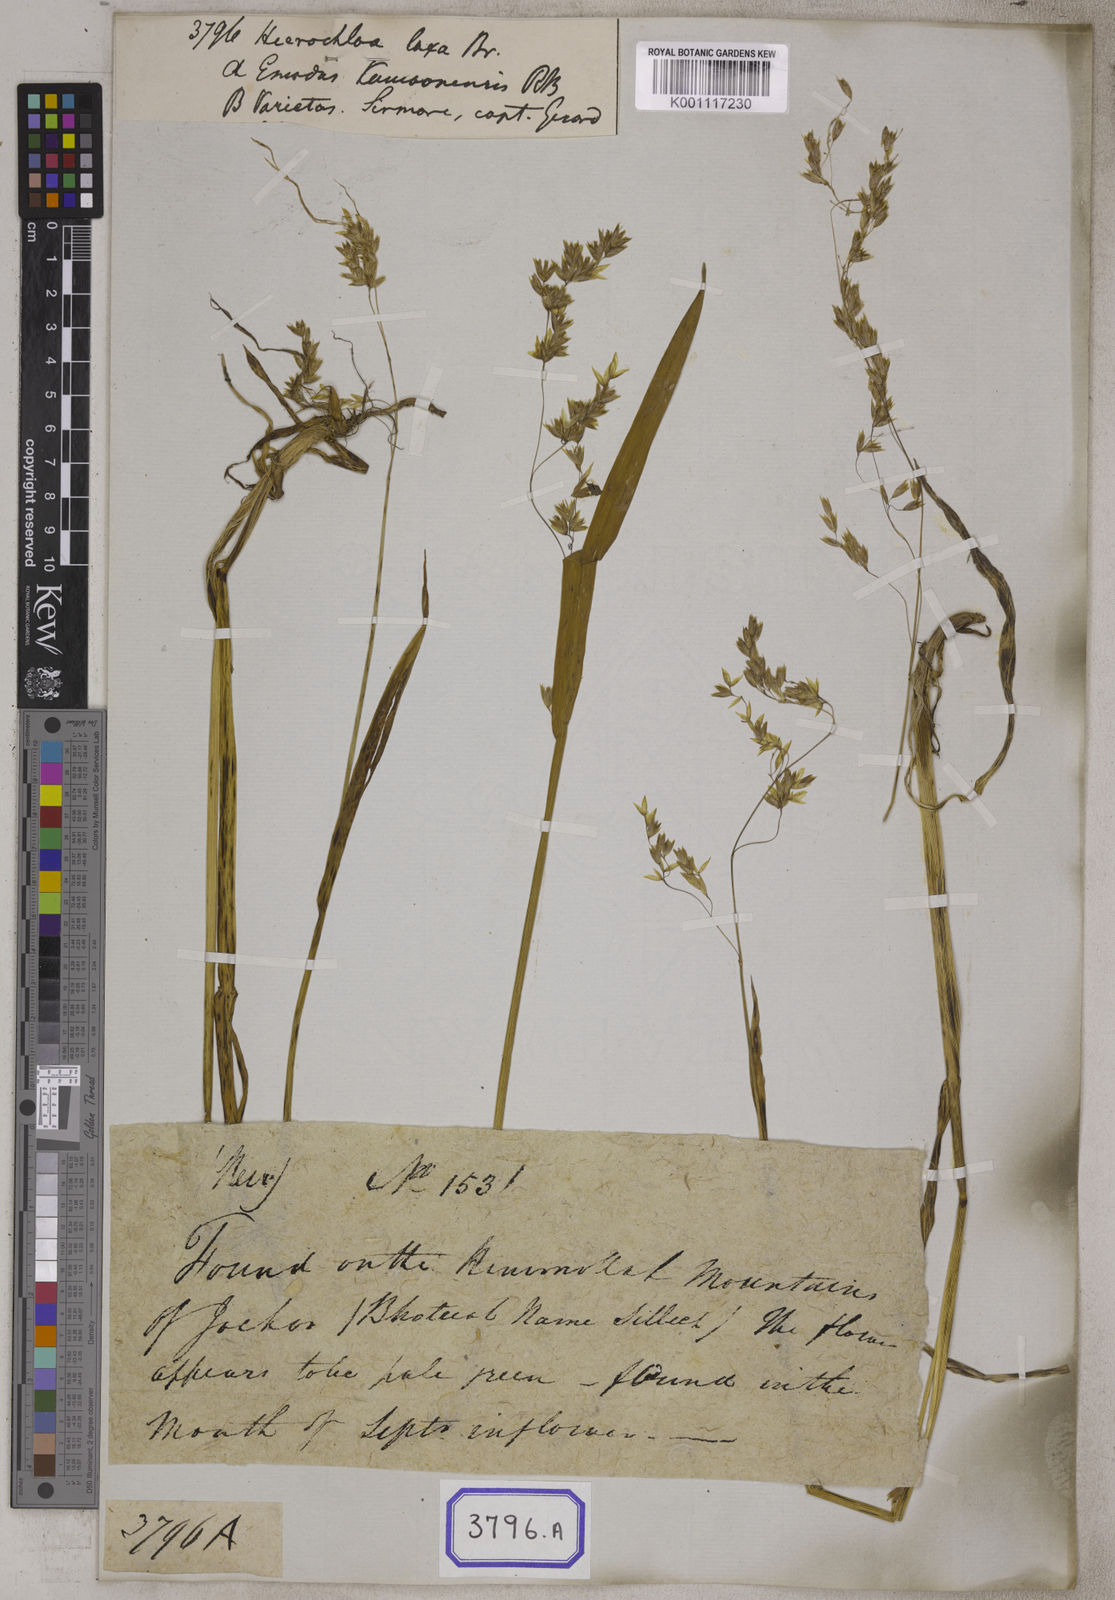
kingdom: Plantae
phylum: Tracheophyta
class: Liliopsida
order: Poales
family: Poaceae
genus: Hierochloe
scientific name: Hierochloe
